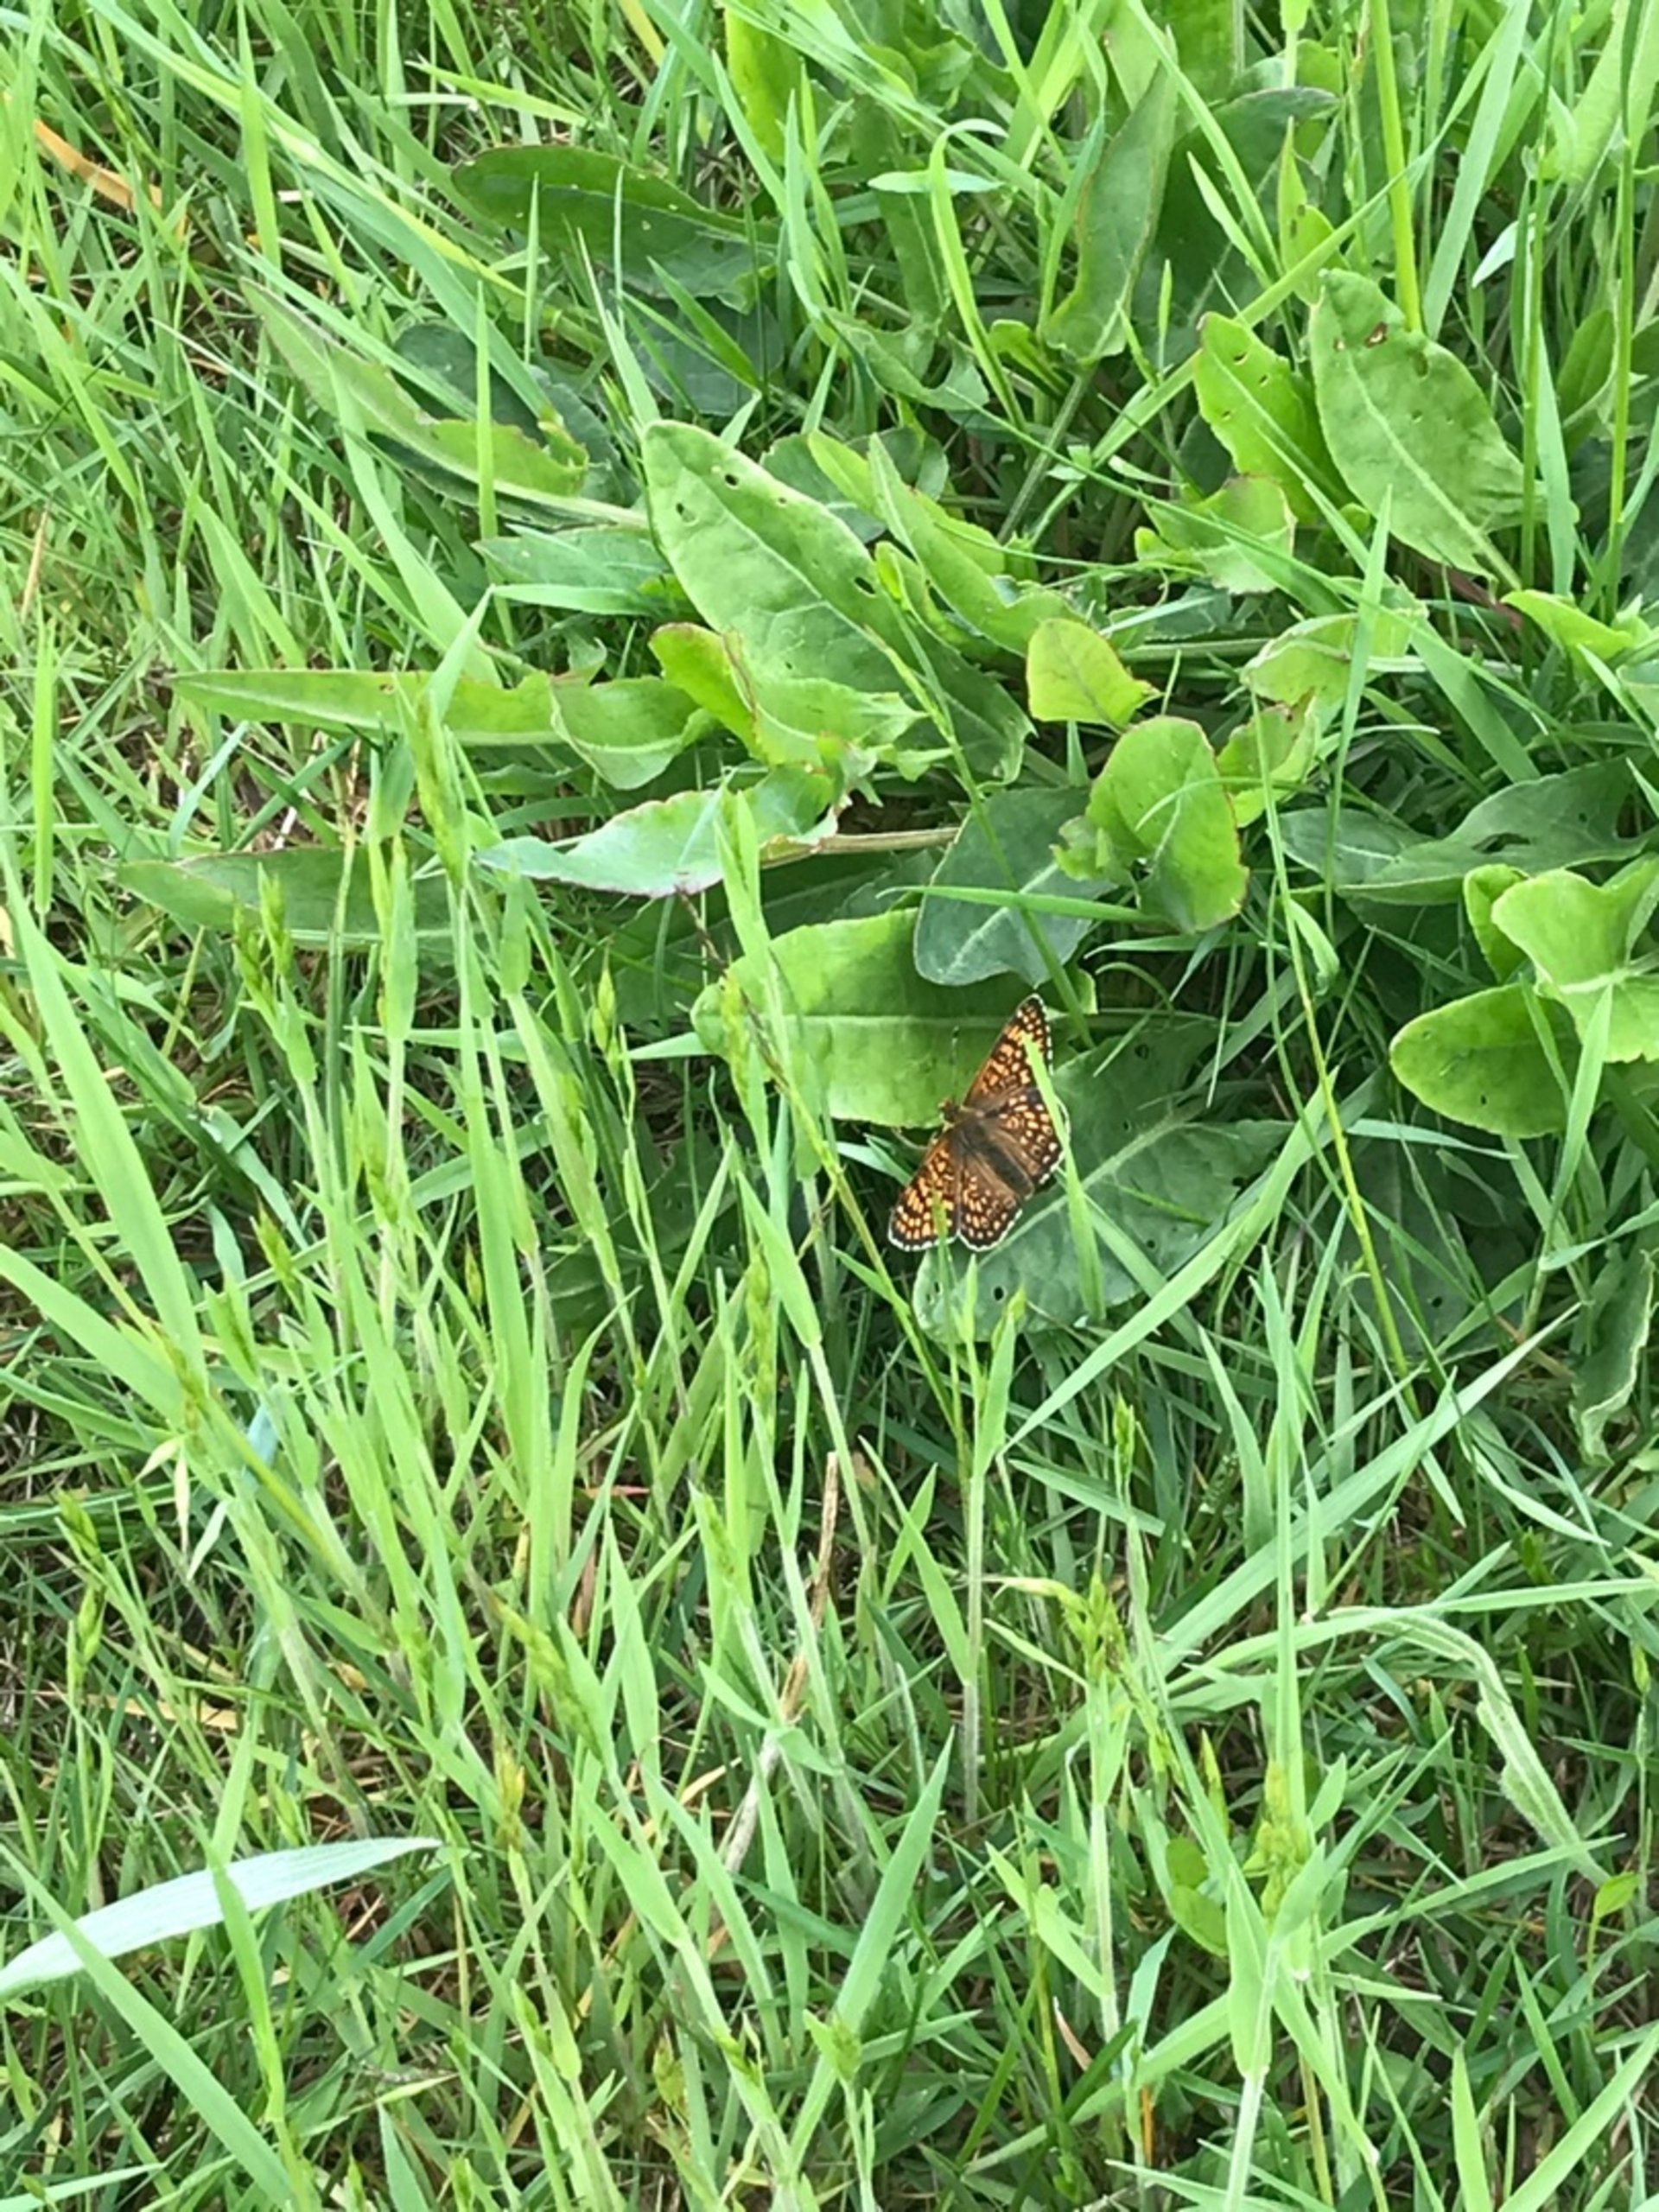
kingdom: Animalia
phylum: Arthropoda
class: Insecta
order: Lepidoptera
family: Nymphalidae
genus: Melitaea
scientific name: Melitaea cinxia
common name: Okkergul pletvinge
